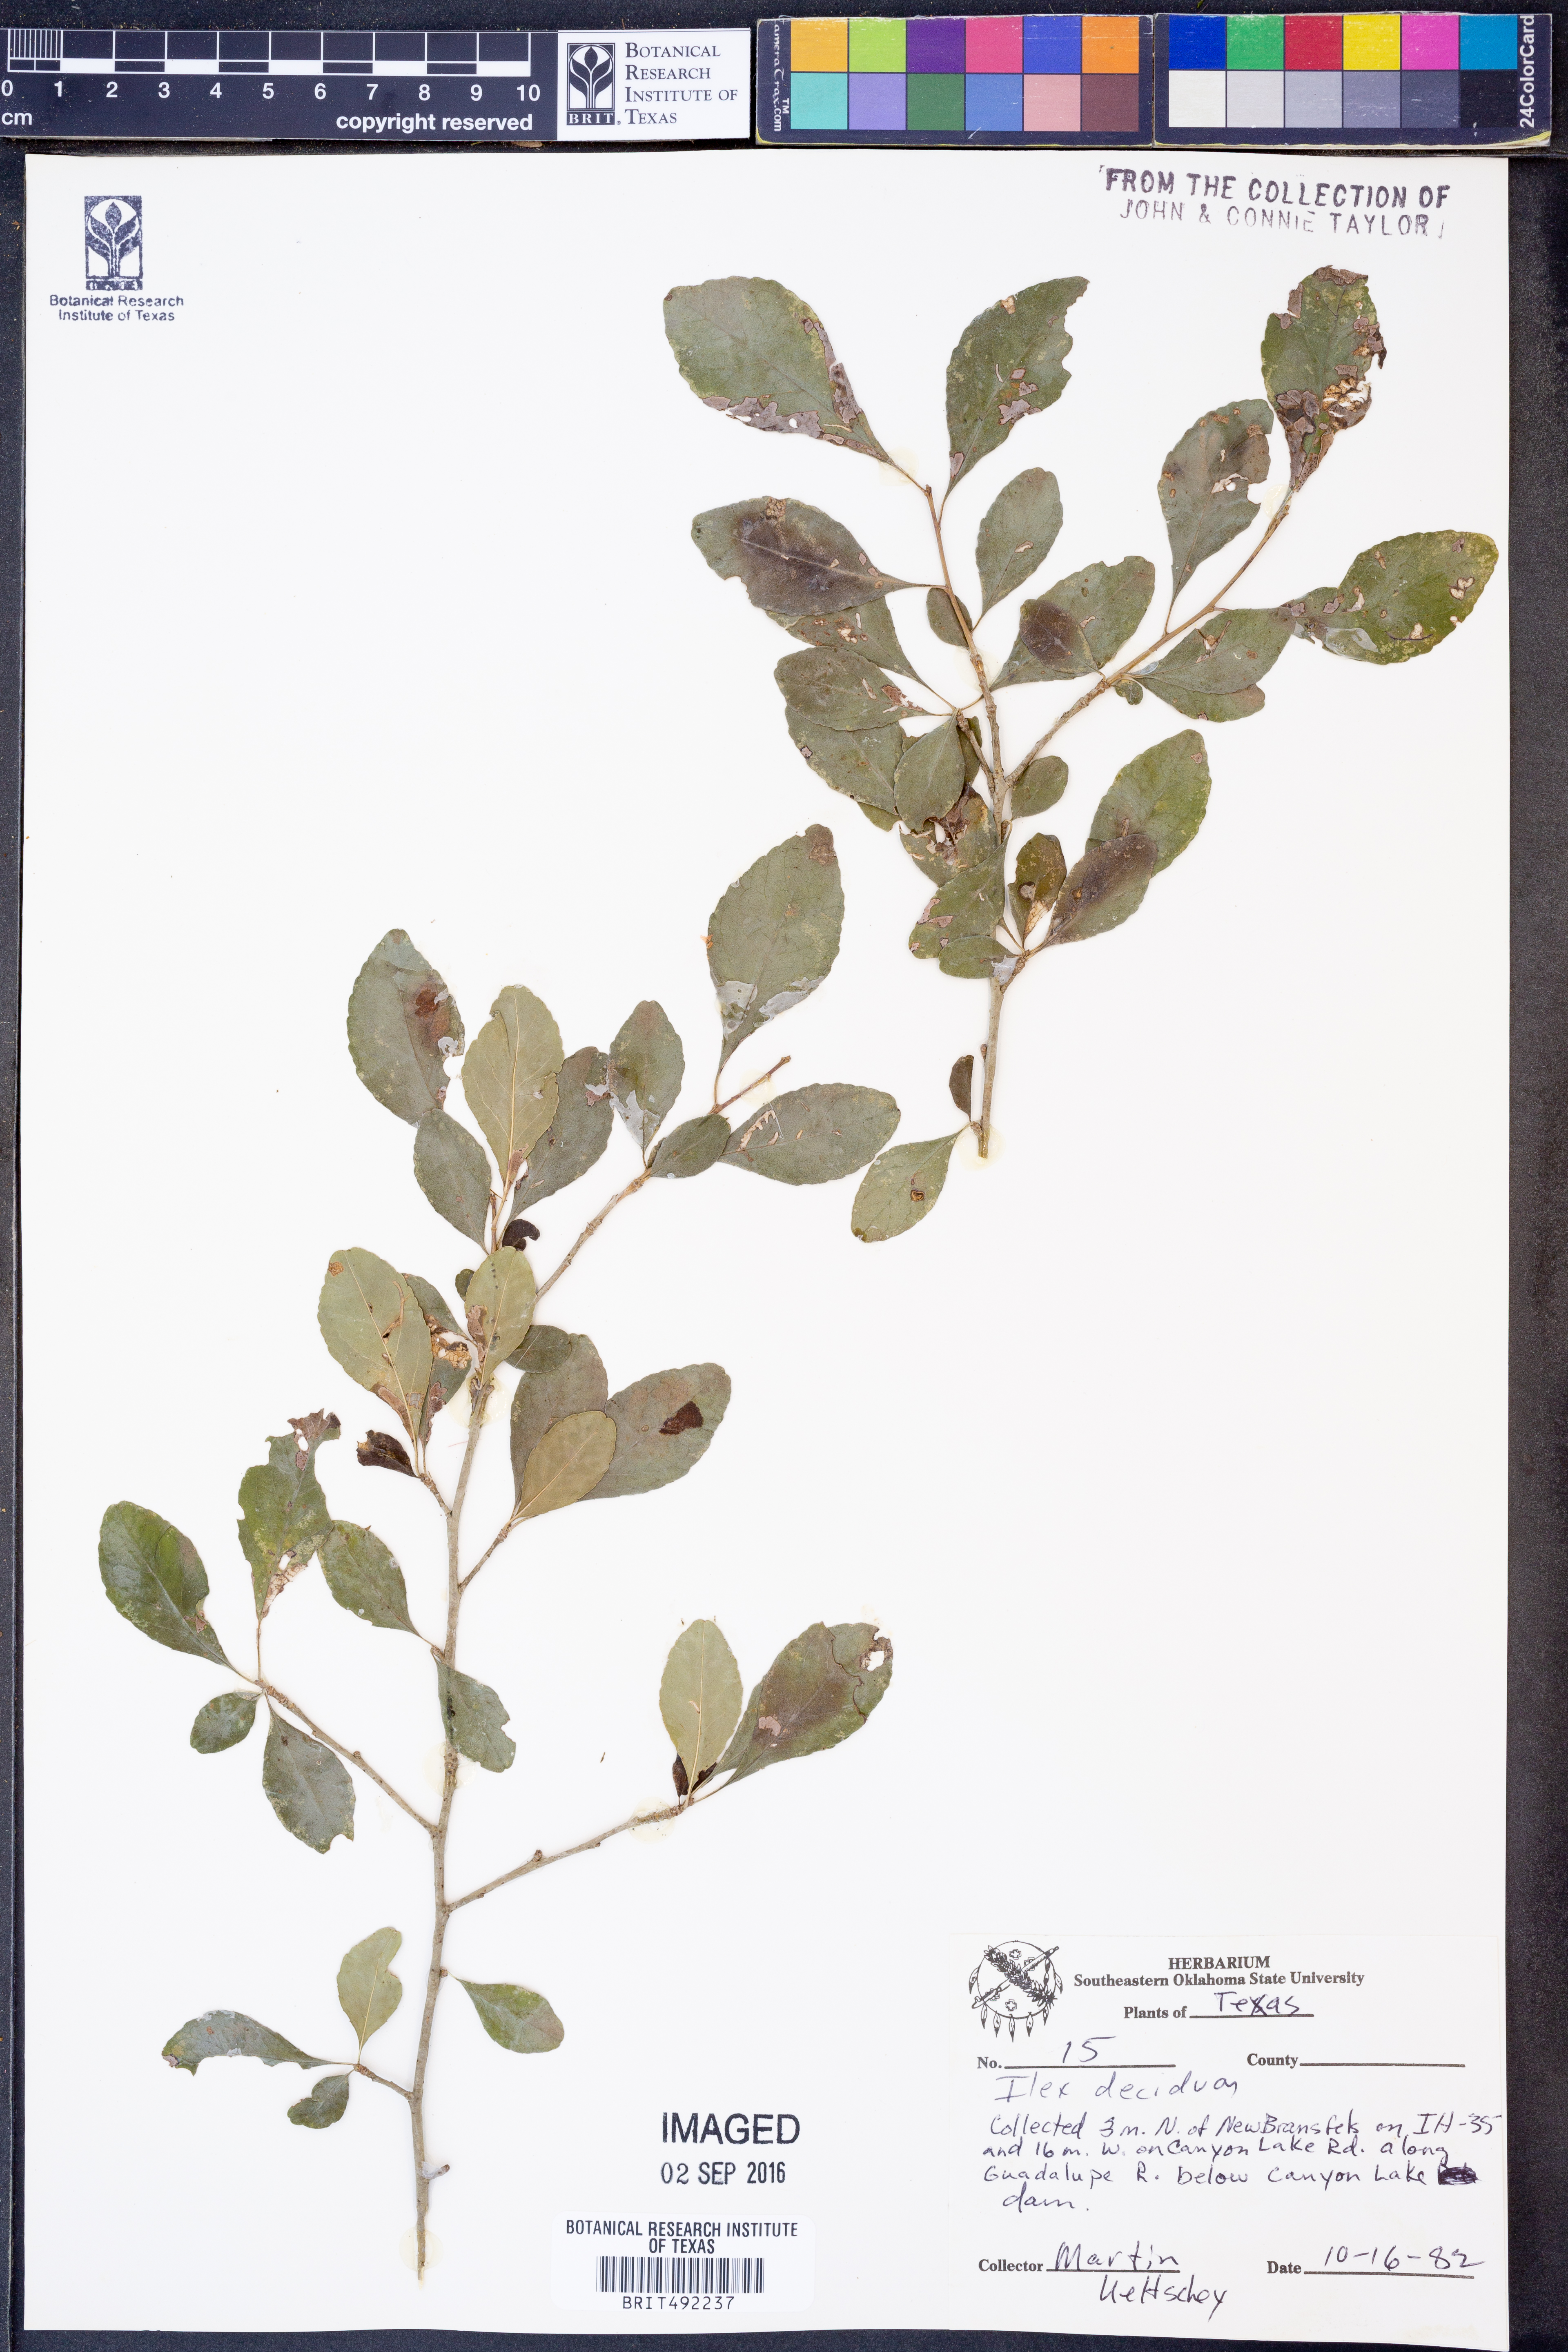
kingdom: Plantae
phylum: Tracheophyta
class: Magnoliopsida
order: Aquifoliales
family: Aquifoliaceae
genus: Ilex
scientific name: Ilex decidua
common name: Possum-haw
